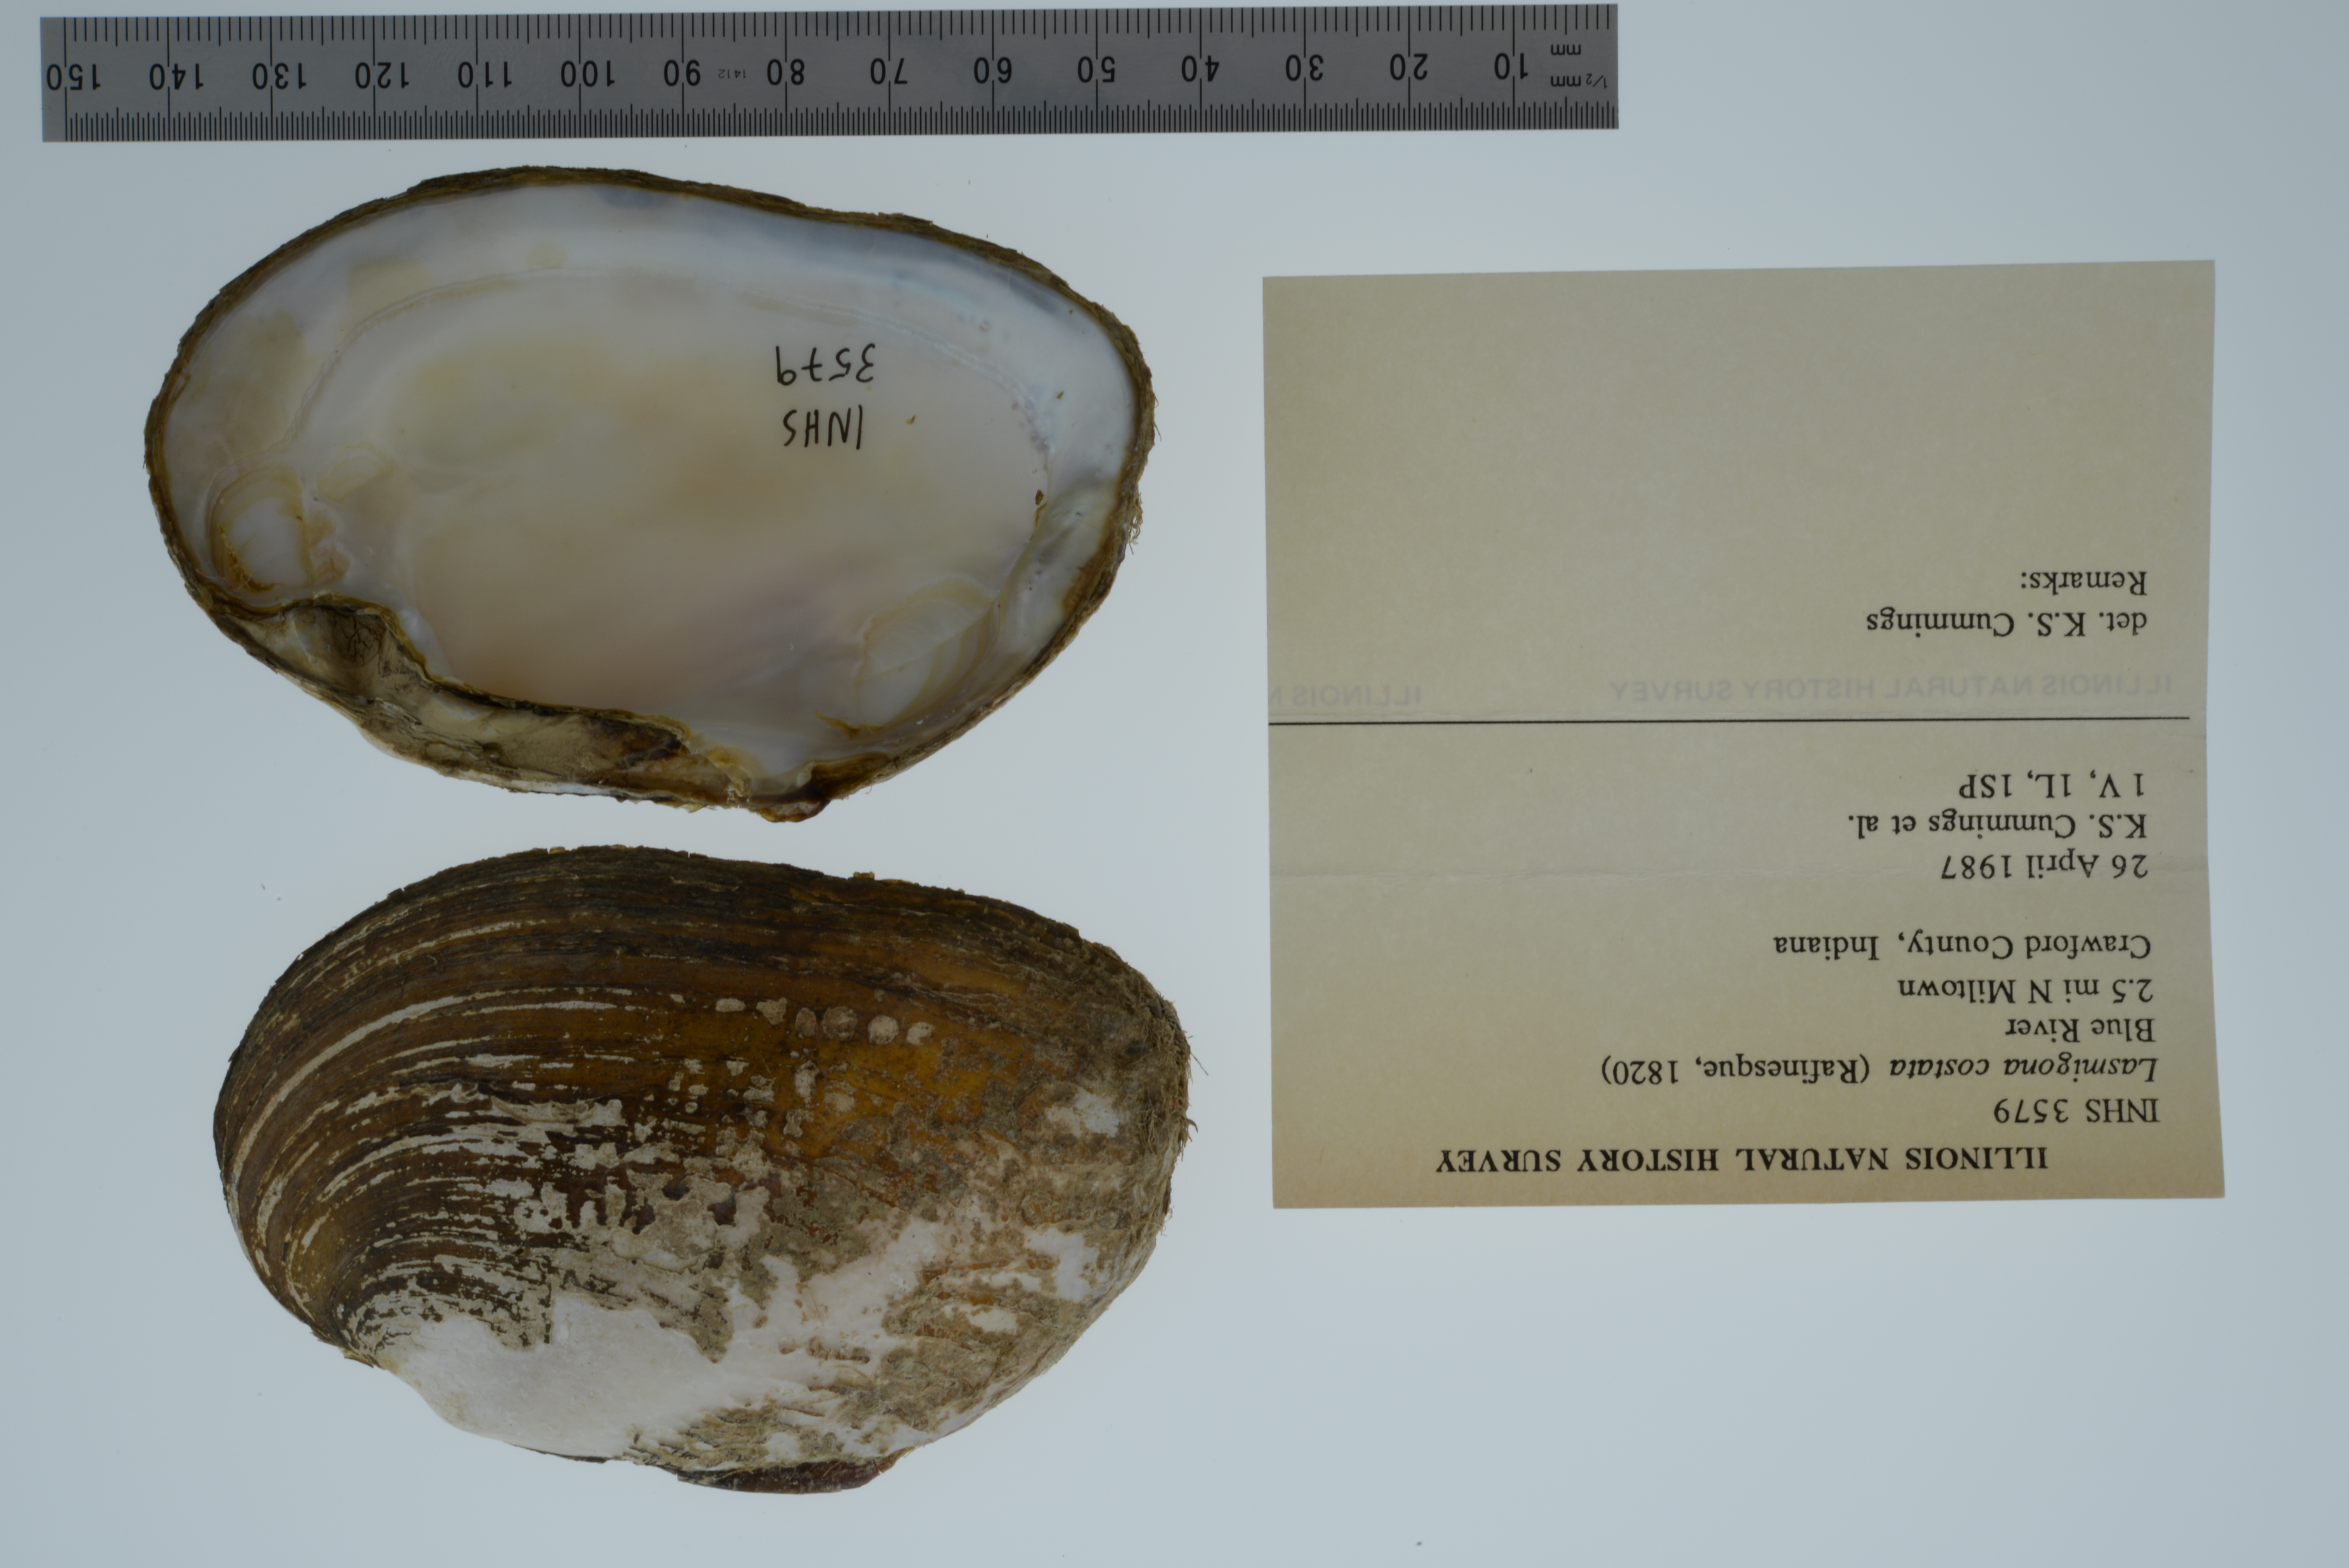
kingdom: Animalia
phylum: Mollusca
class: Bivalvia
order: Unionida
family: Unionidae
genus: Lasmigona
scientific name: Lasmigona costata
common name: Flutedshell
